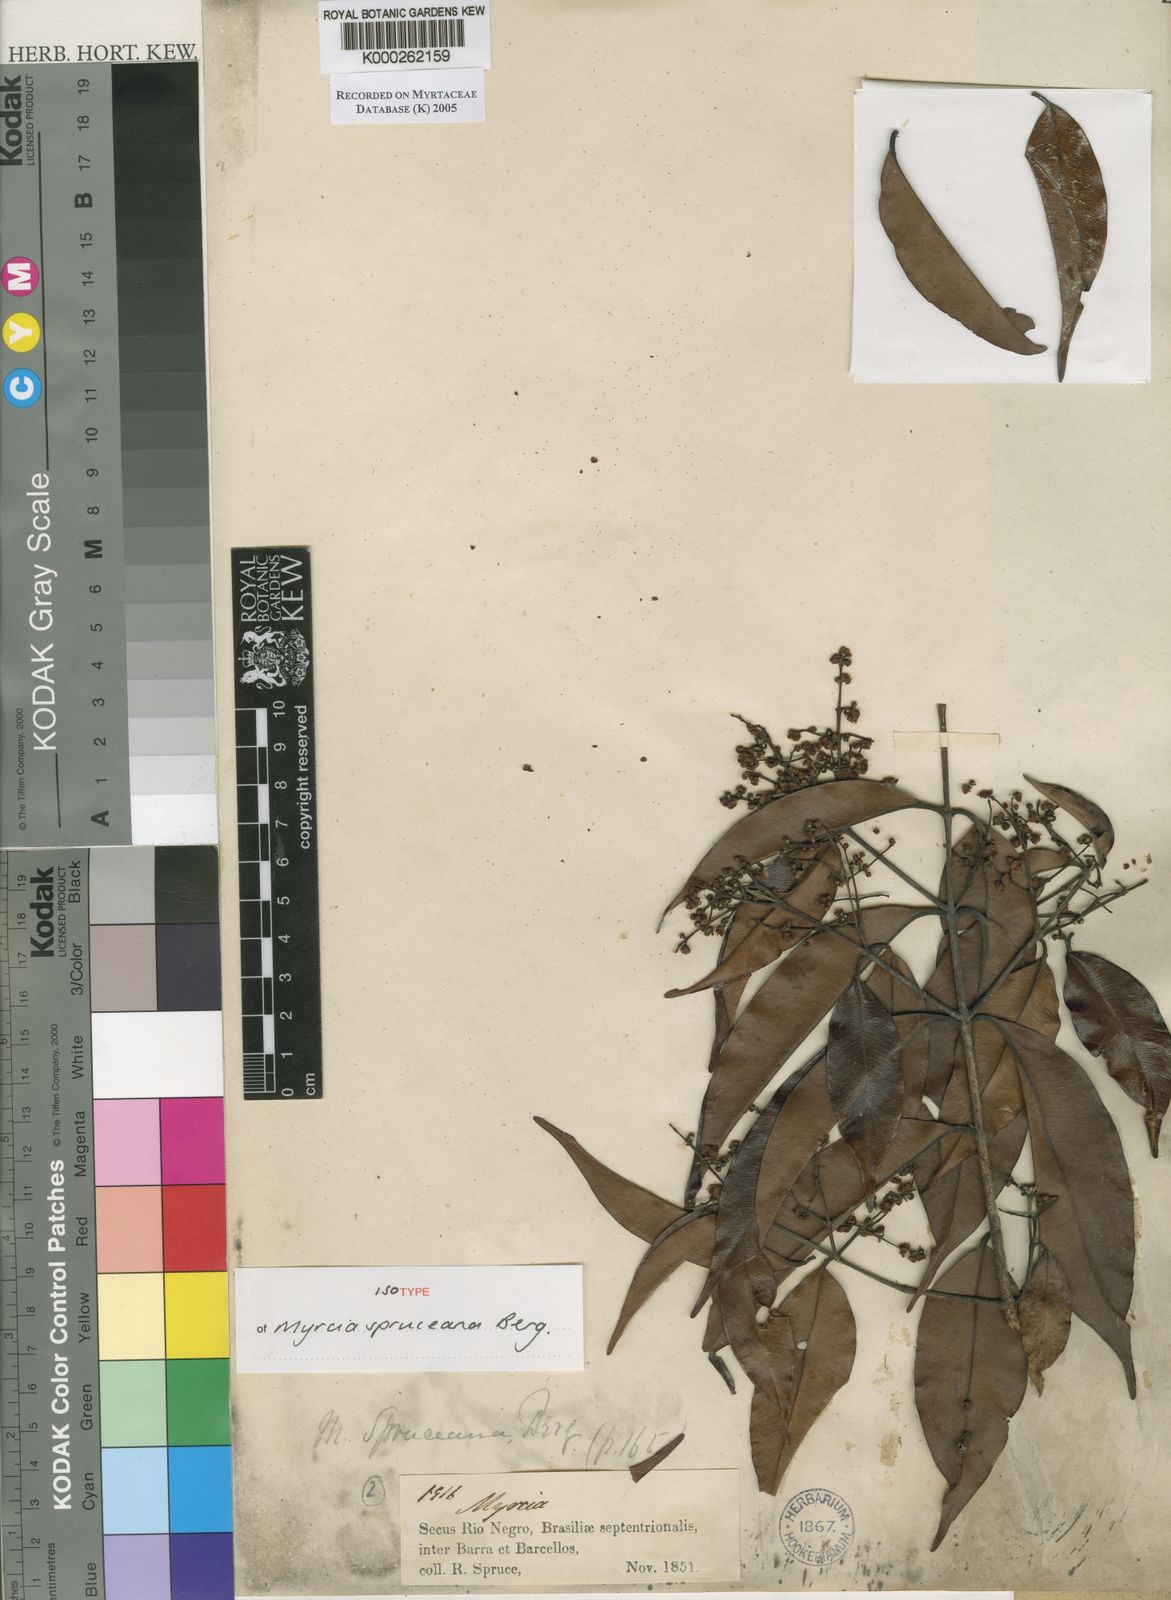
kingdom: Plantae
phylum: Tracheophyta
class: Magnoliopsida
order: Myrtales
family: Myrtaceae
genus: Myrcia
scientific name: Myrcia splendens
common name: Surinam cherry
